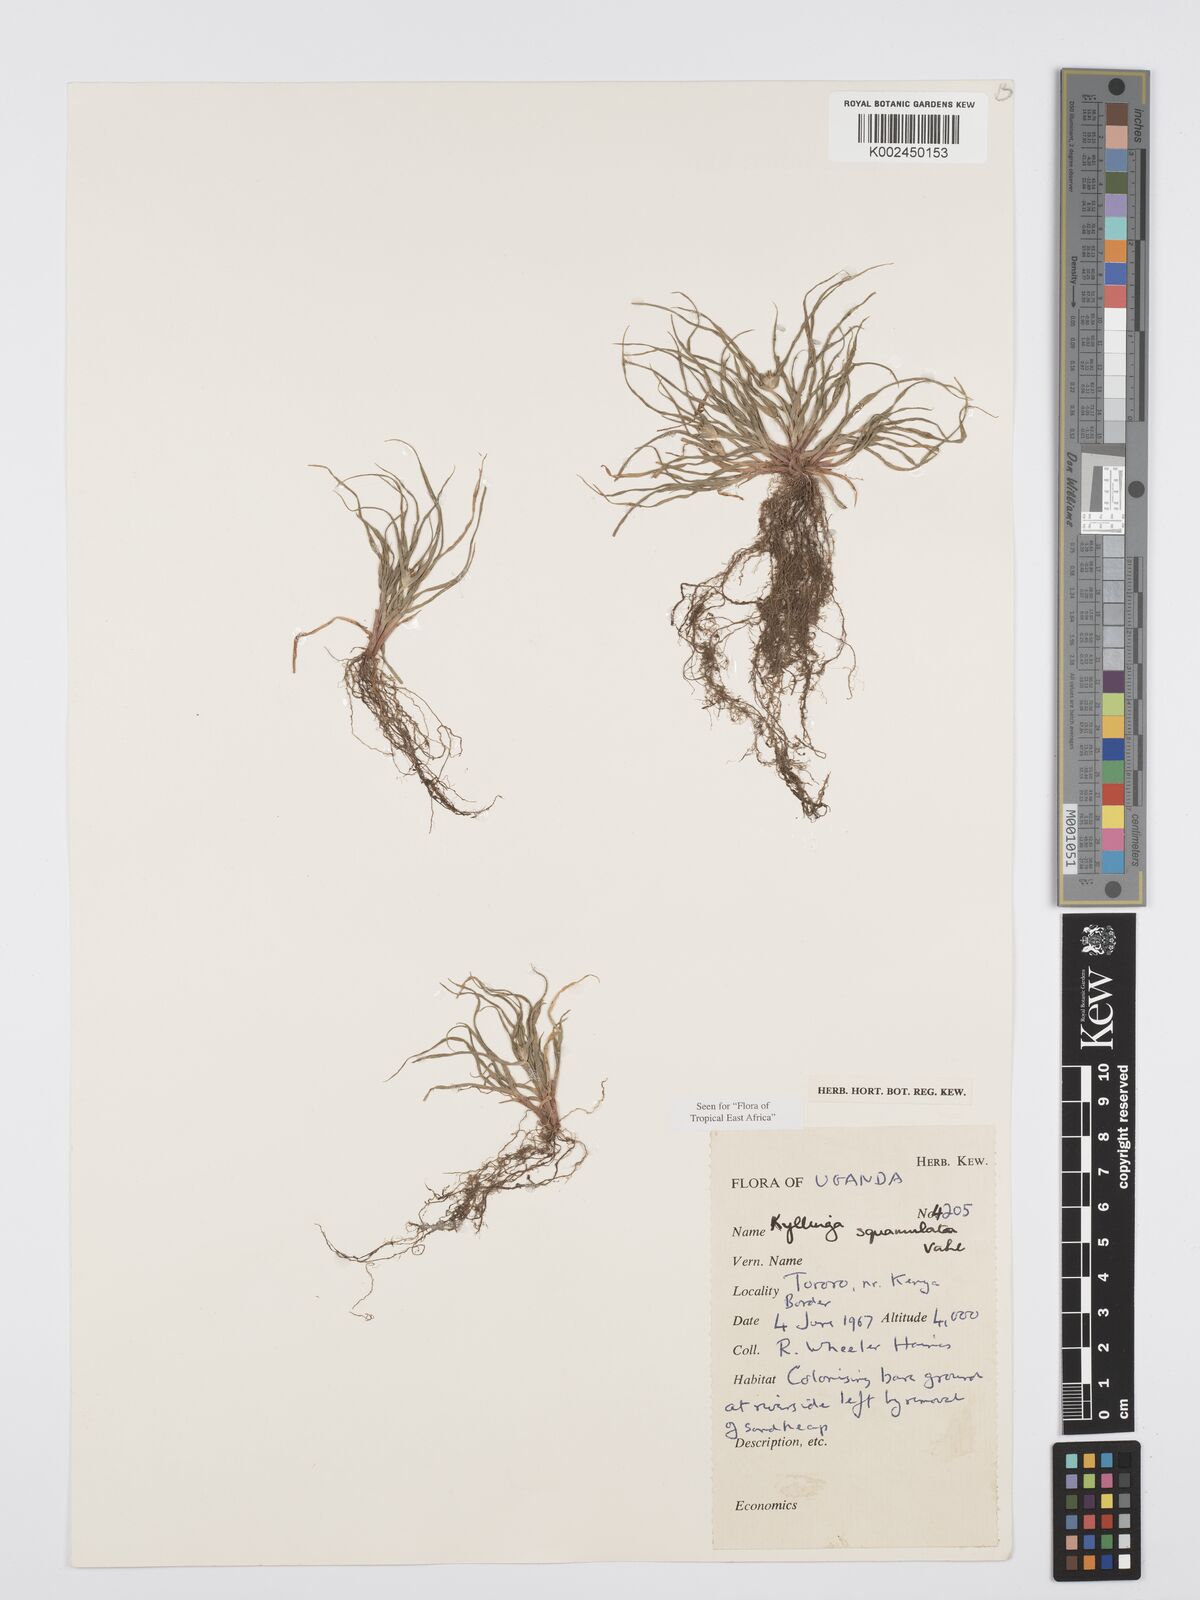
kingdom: Plantae
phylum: Tracheophyta
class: Liliopsida
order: Poales
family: Cyperaceae
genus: Cyperus
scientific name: Cyperus distans
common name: Slender cyperus
